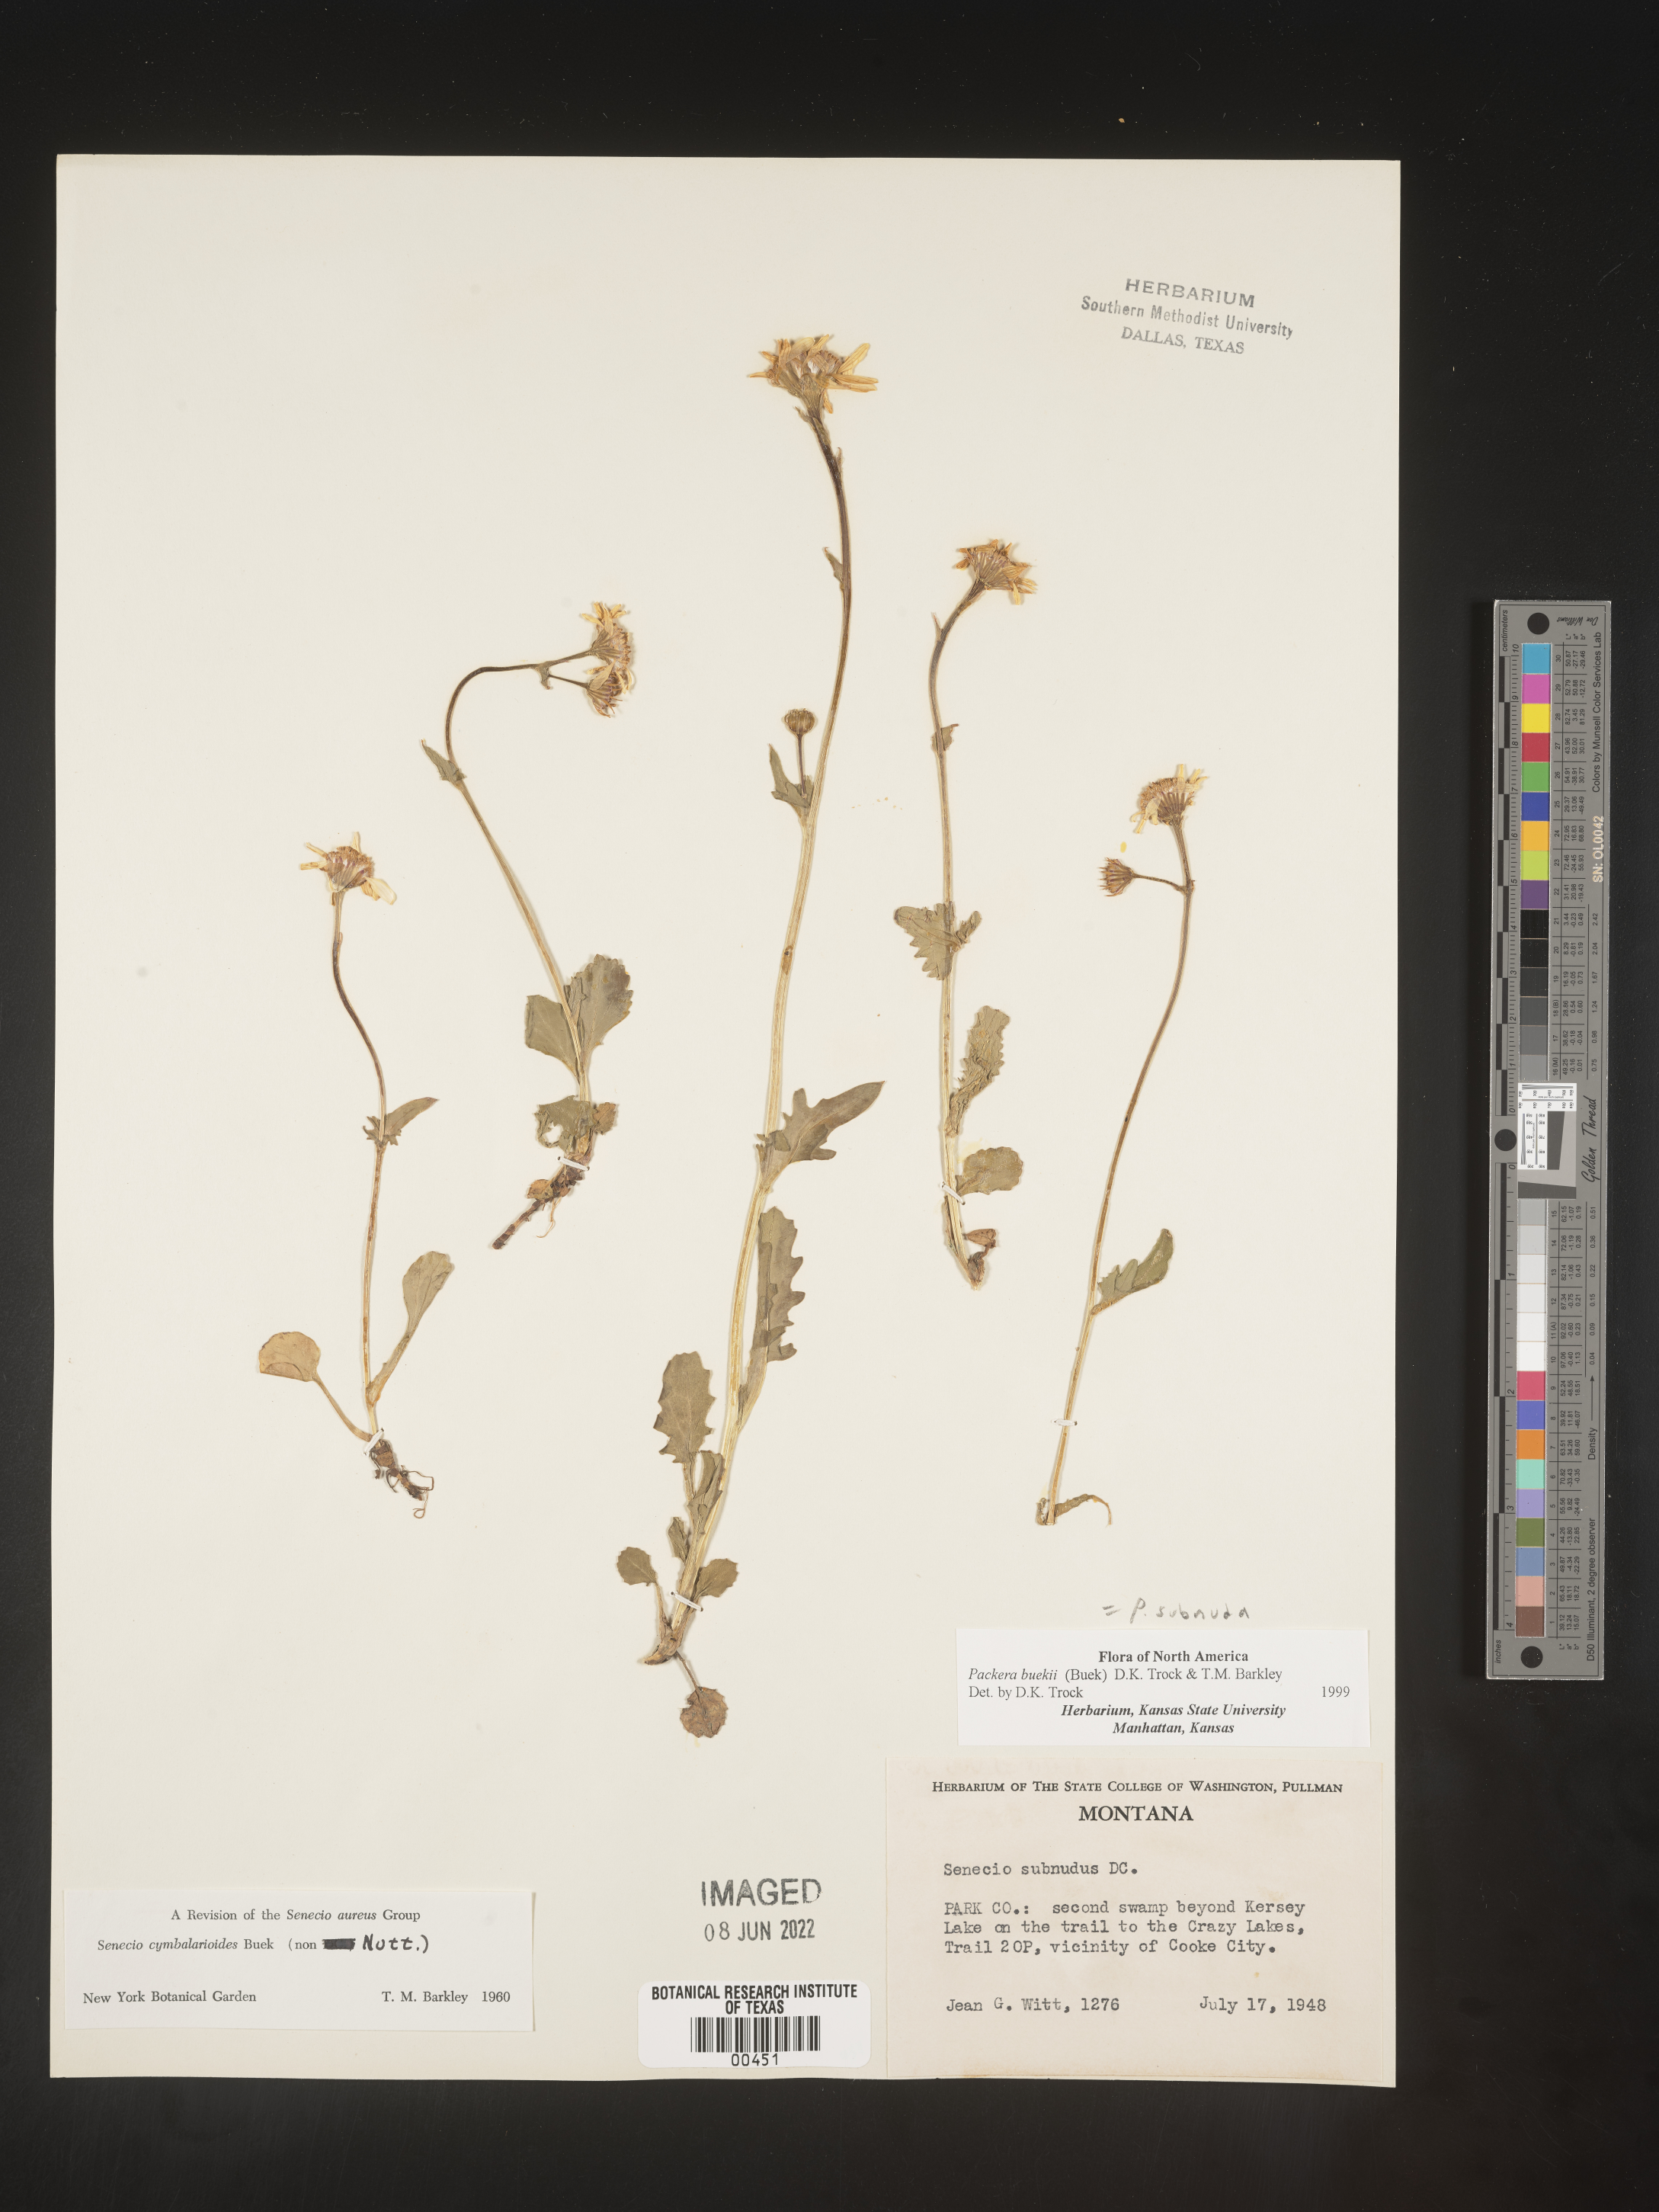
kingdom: Plantae
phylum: Tracheophyta
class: Magnoliopsida
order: Asterales
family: Asteraceae
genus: Packera
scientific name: Packera subnuda
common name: Buek's groundsel
